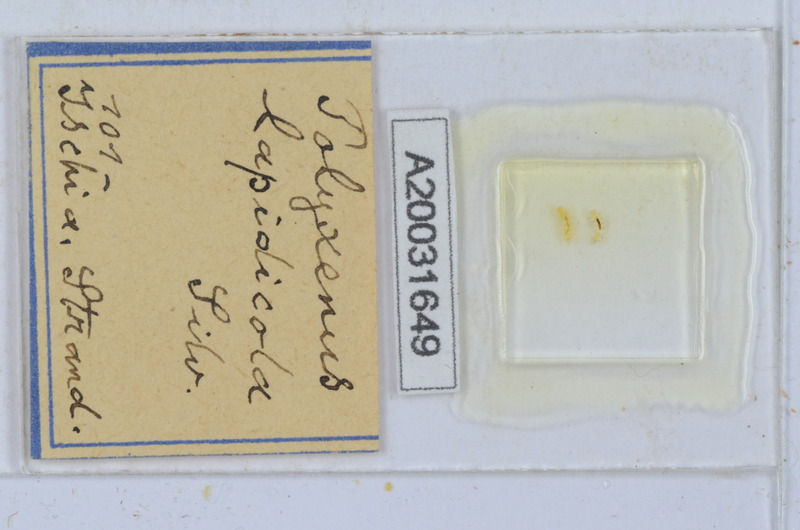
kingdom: Animalia
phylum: Arthropoda
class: Diplopoda
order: Polyxenida
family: Polyxenidae
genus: Polyxenus
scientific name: Polyxenus lapidicola
